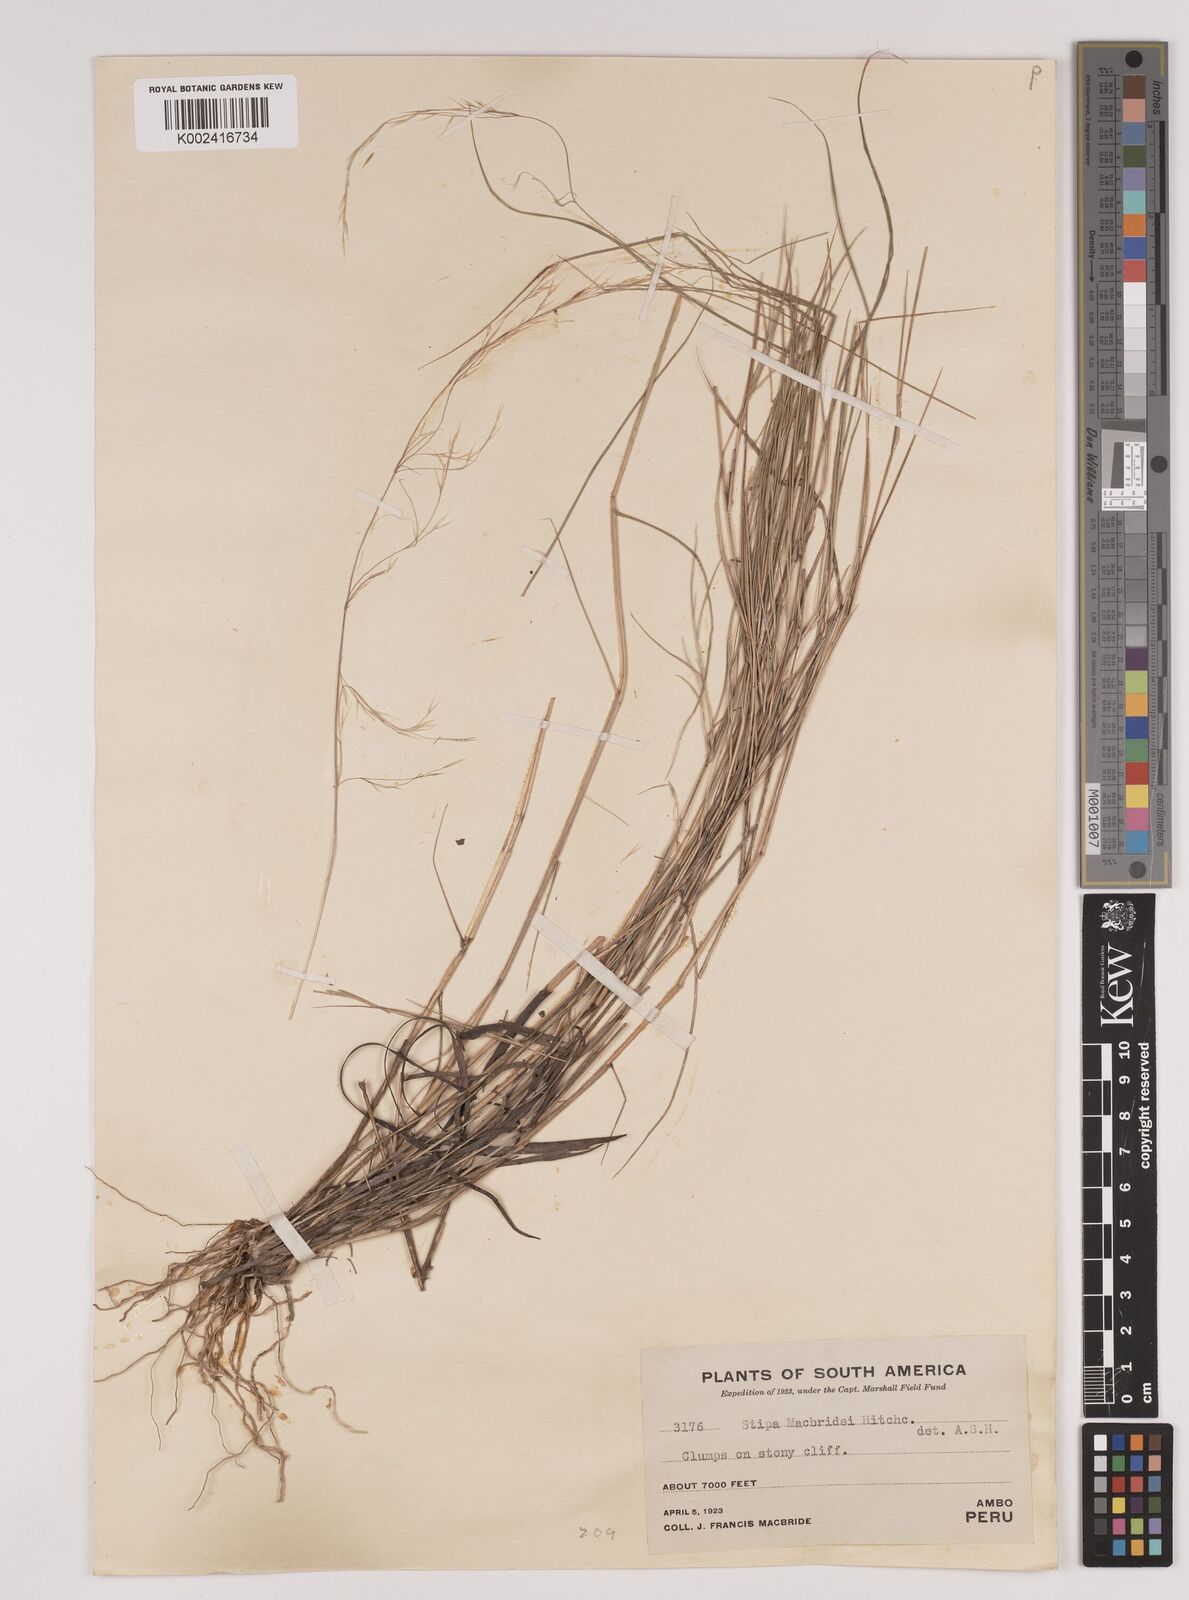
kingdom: Plantae
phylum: Tracheophyta
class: Liliopsida
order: Poales
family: Poaceae
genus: Stipa
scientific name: Stipa macbridei
